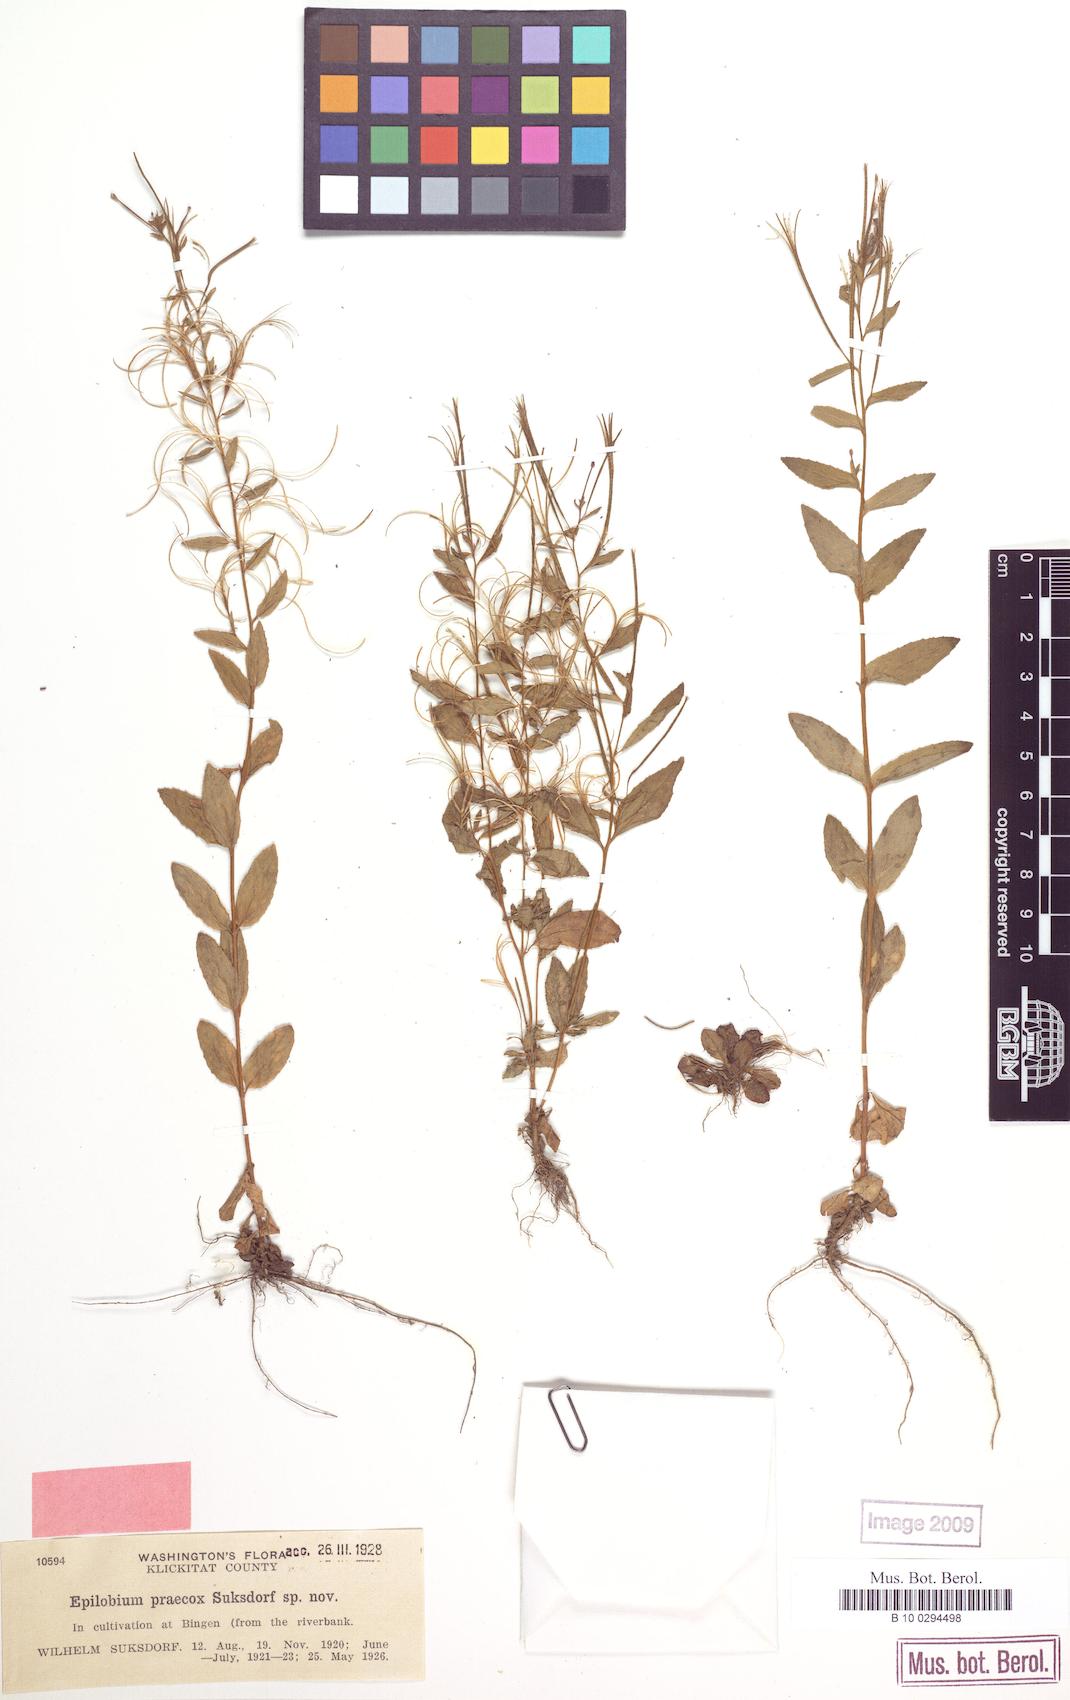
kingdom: Plantae
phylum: Tracheophyta
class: Magnoliopsida
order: Myrtales
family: Onagraceae
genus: Epilobium
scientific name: Epilobium ciliatum
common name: American willowherb
